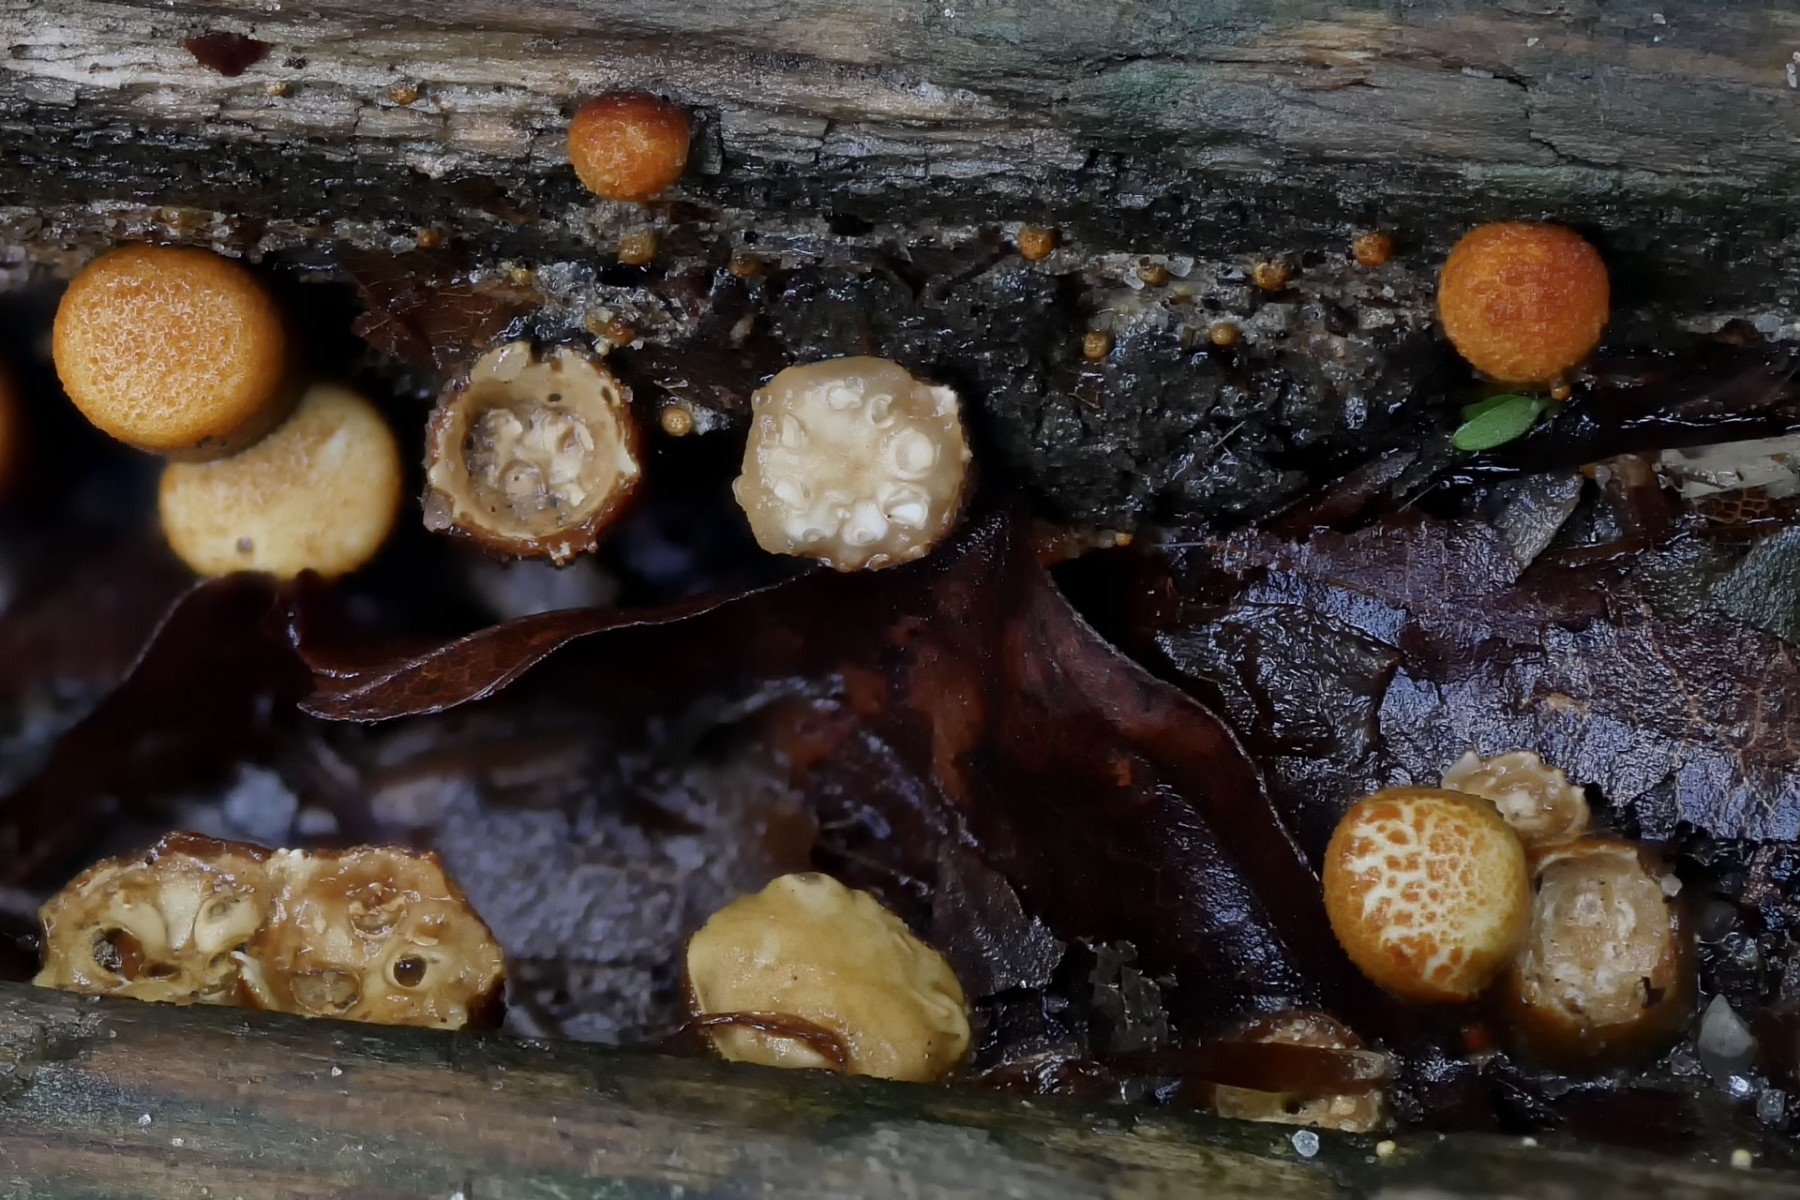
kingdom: Fungi
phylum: Basidiomycota
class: Agaricomycetes
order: Agaricales
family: Nidulariaceae
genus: Crucibulum
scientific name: Crucibulum crucibuliforme
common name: krukkesvamp
